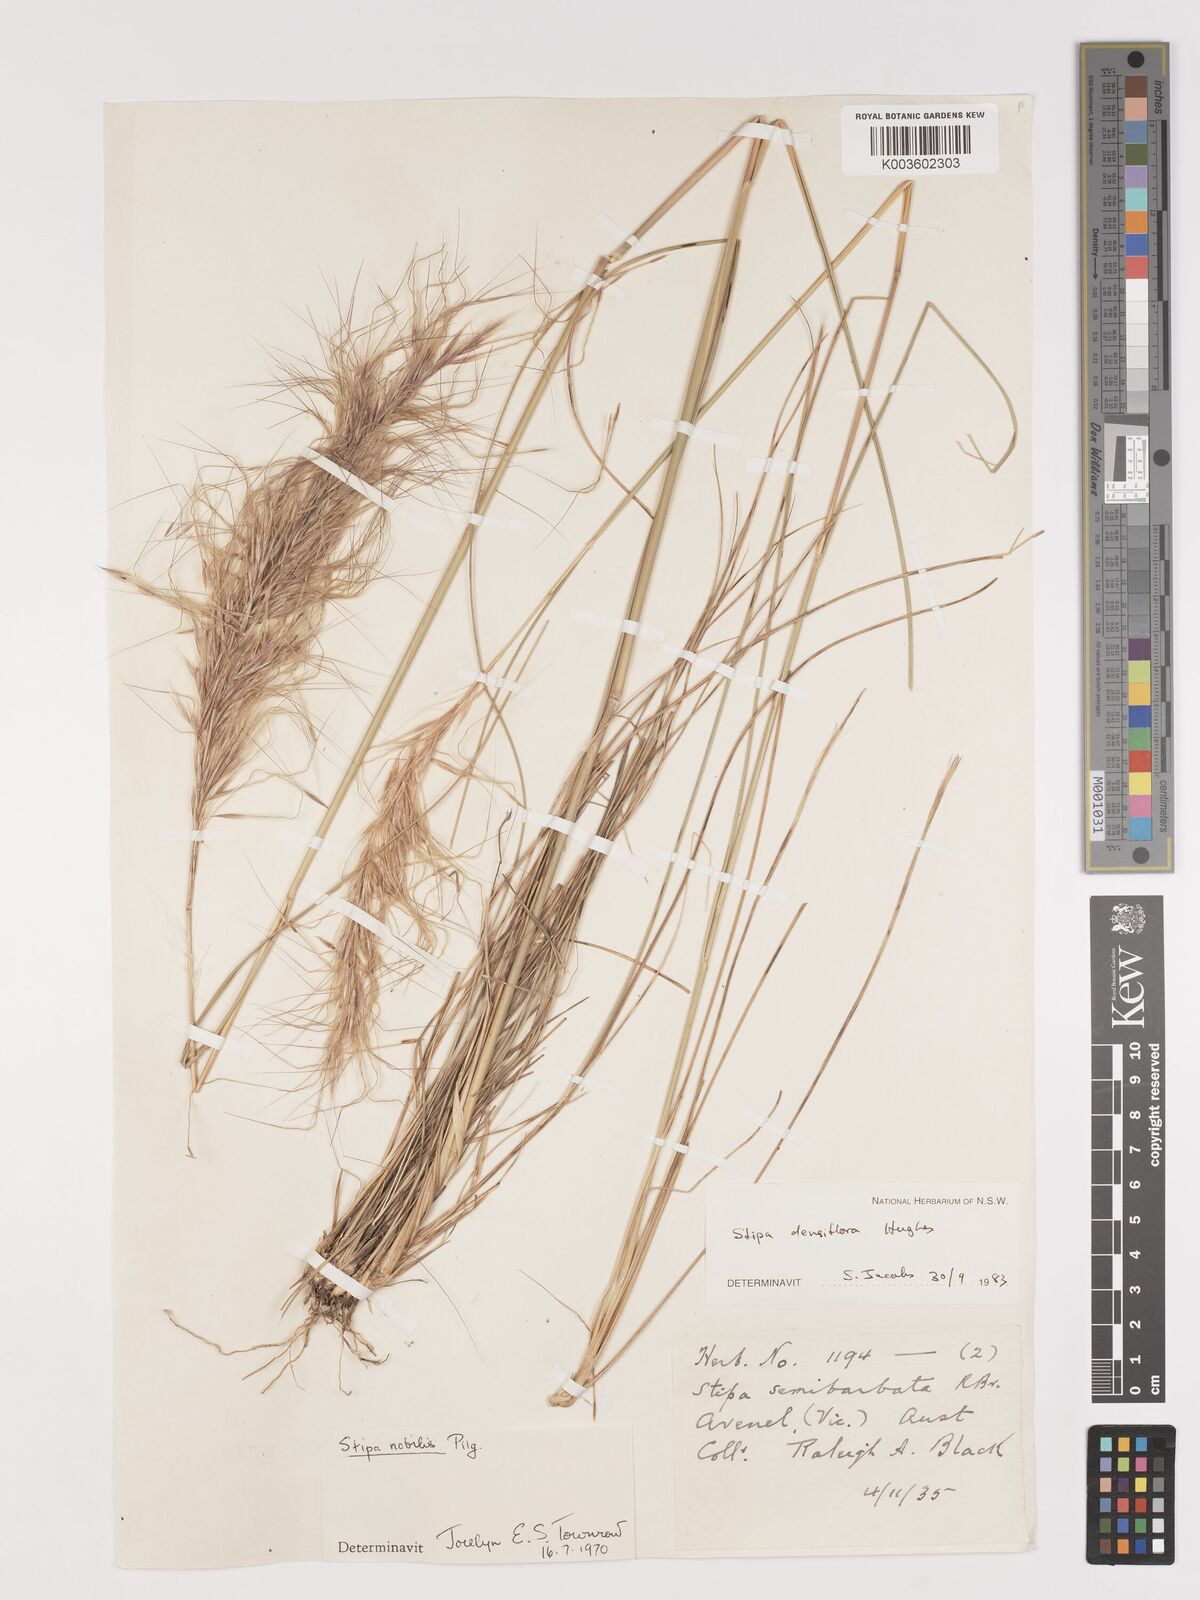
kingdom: Plantae
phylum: Tracheophyta
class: Liliopsida
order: Poales
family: Poaceae
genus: Stipa
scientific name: Stipa
